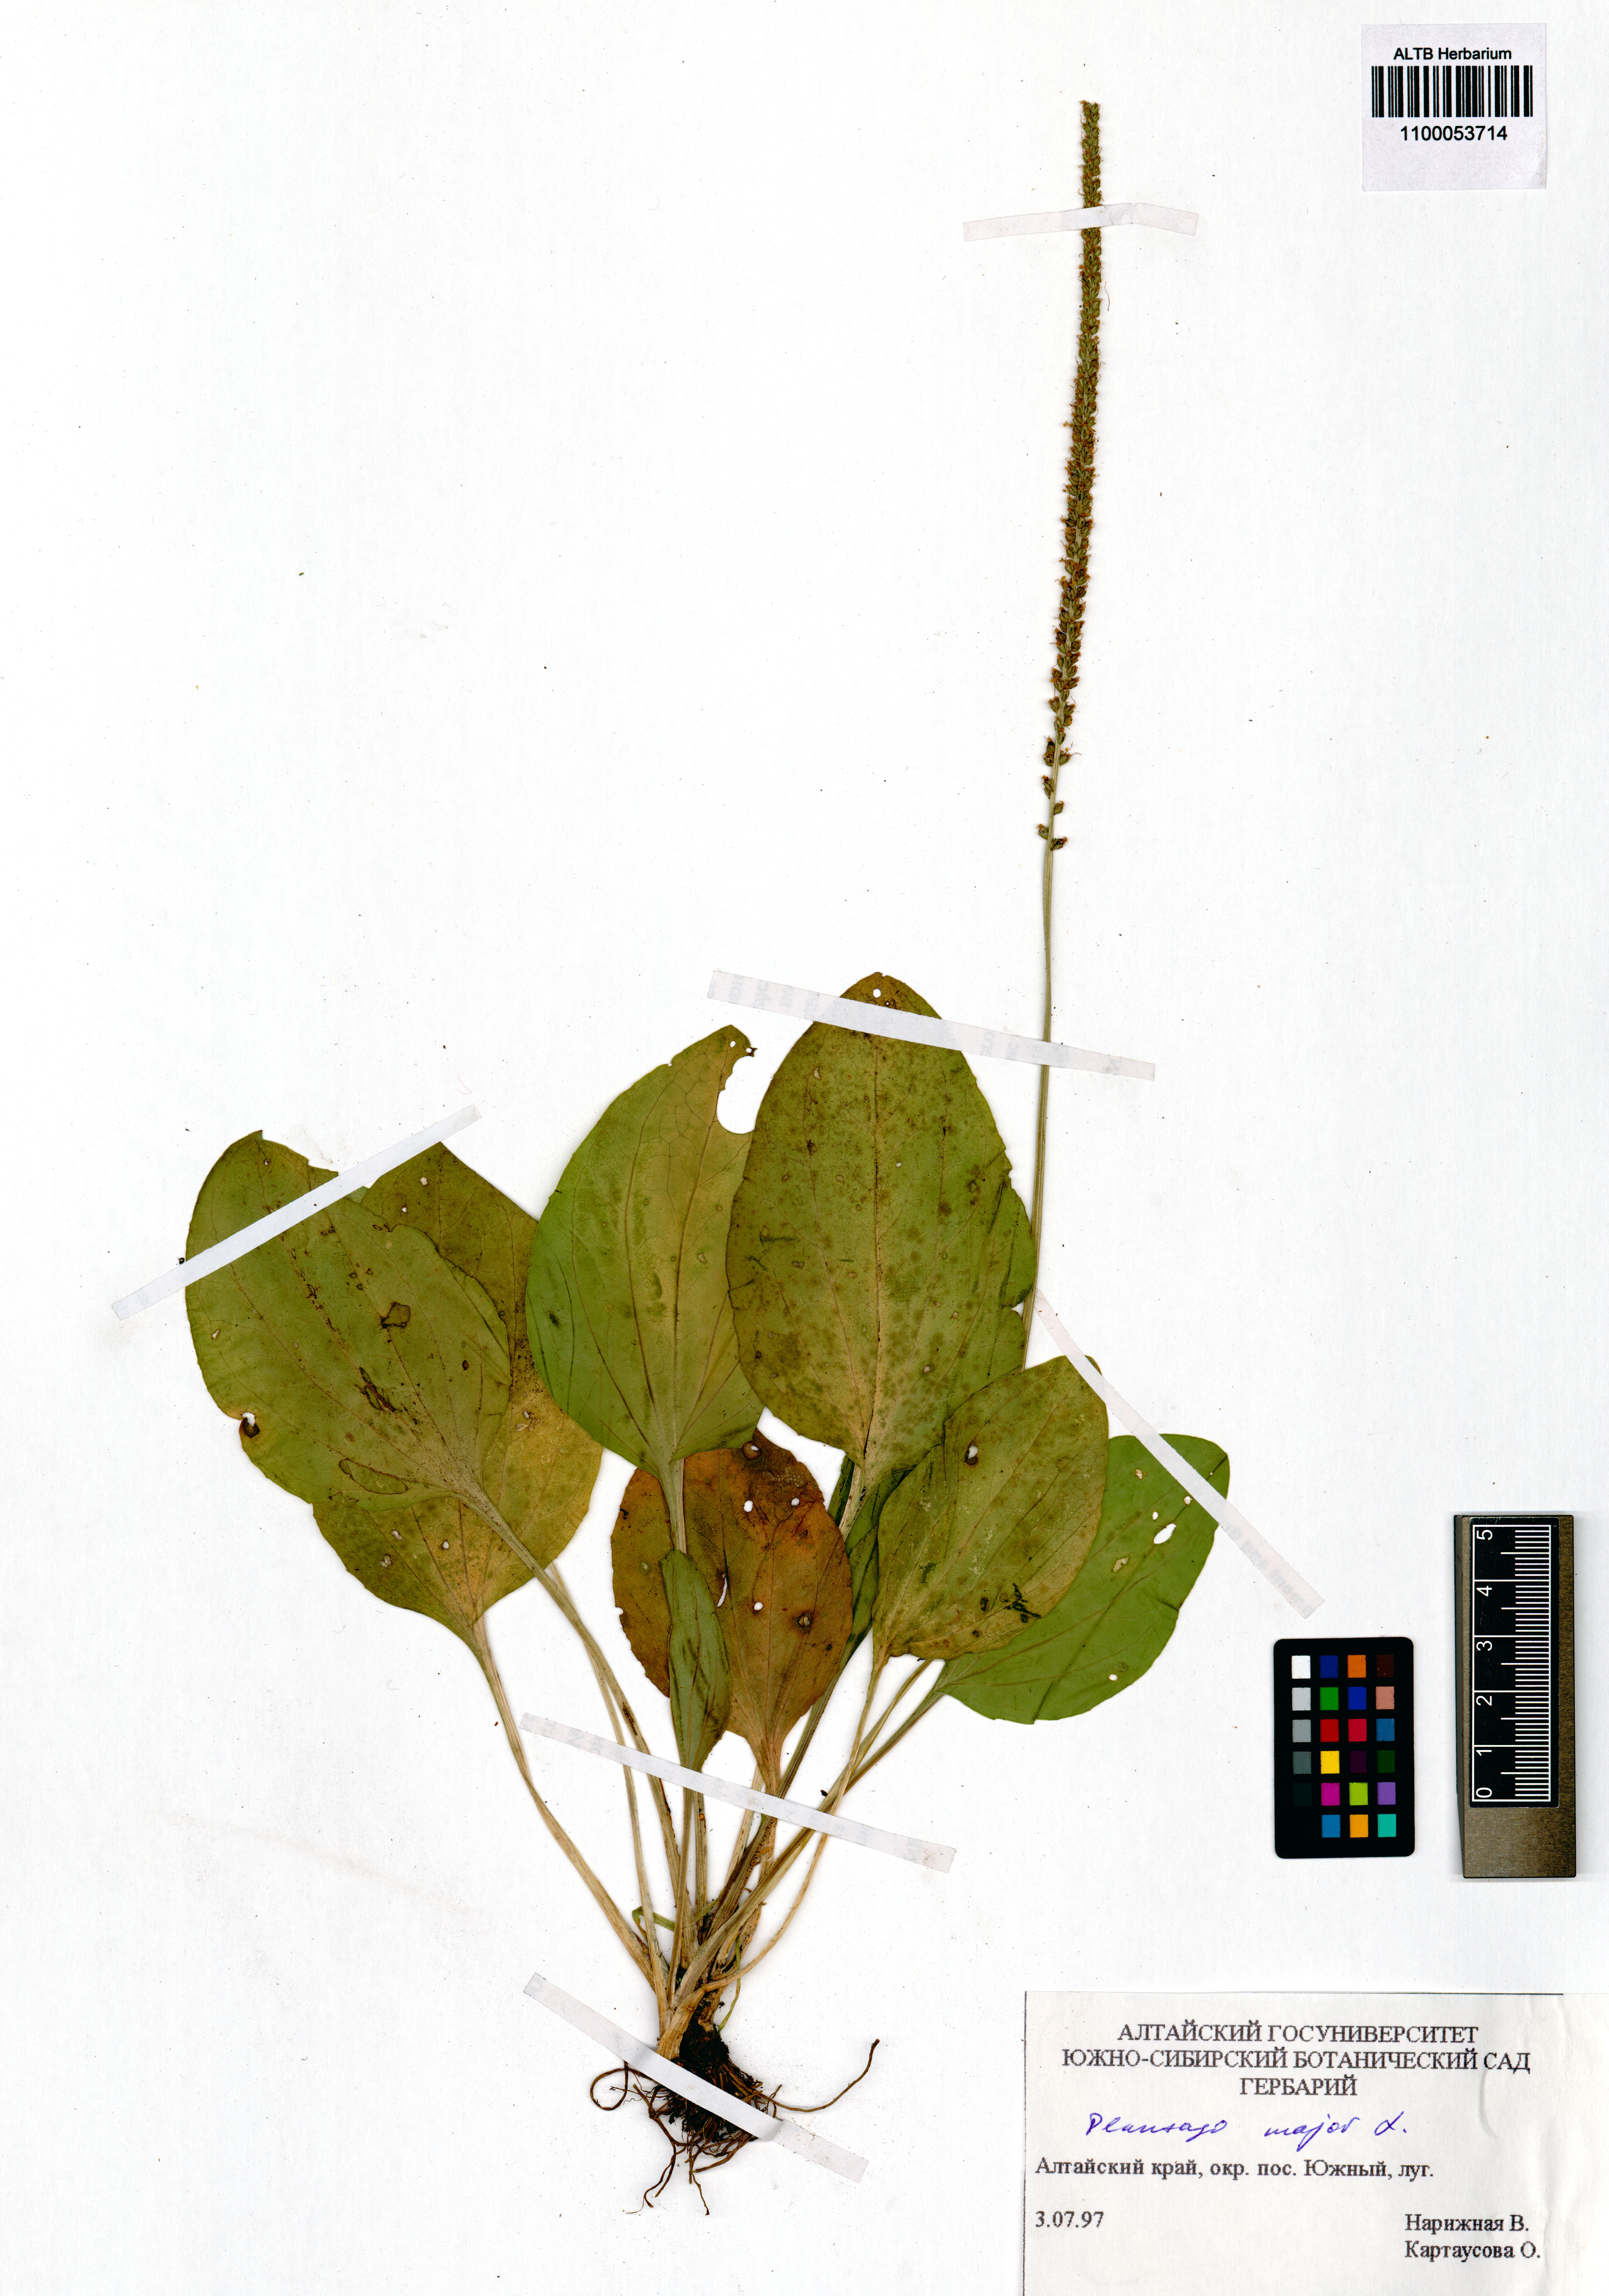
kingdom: Plantae
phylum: Tracheophyta
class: Magnoliopsida
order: Lamiales
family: Plantaginaceae
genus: Plantago
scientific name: Plantago major
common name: Common plantain
